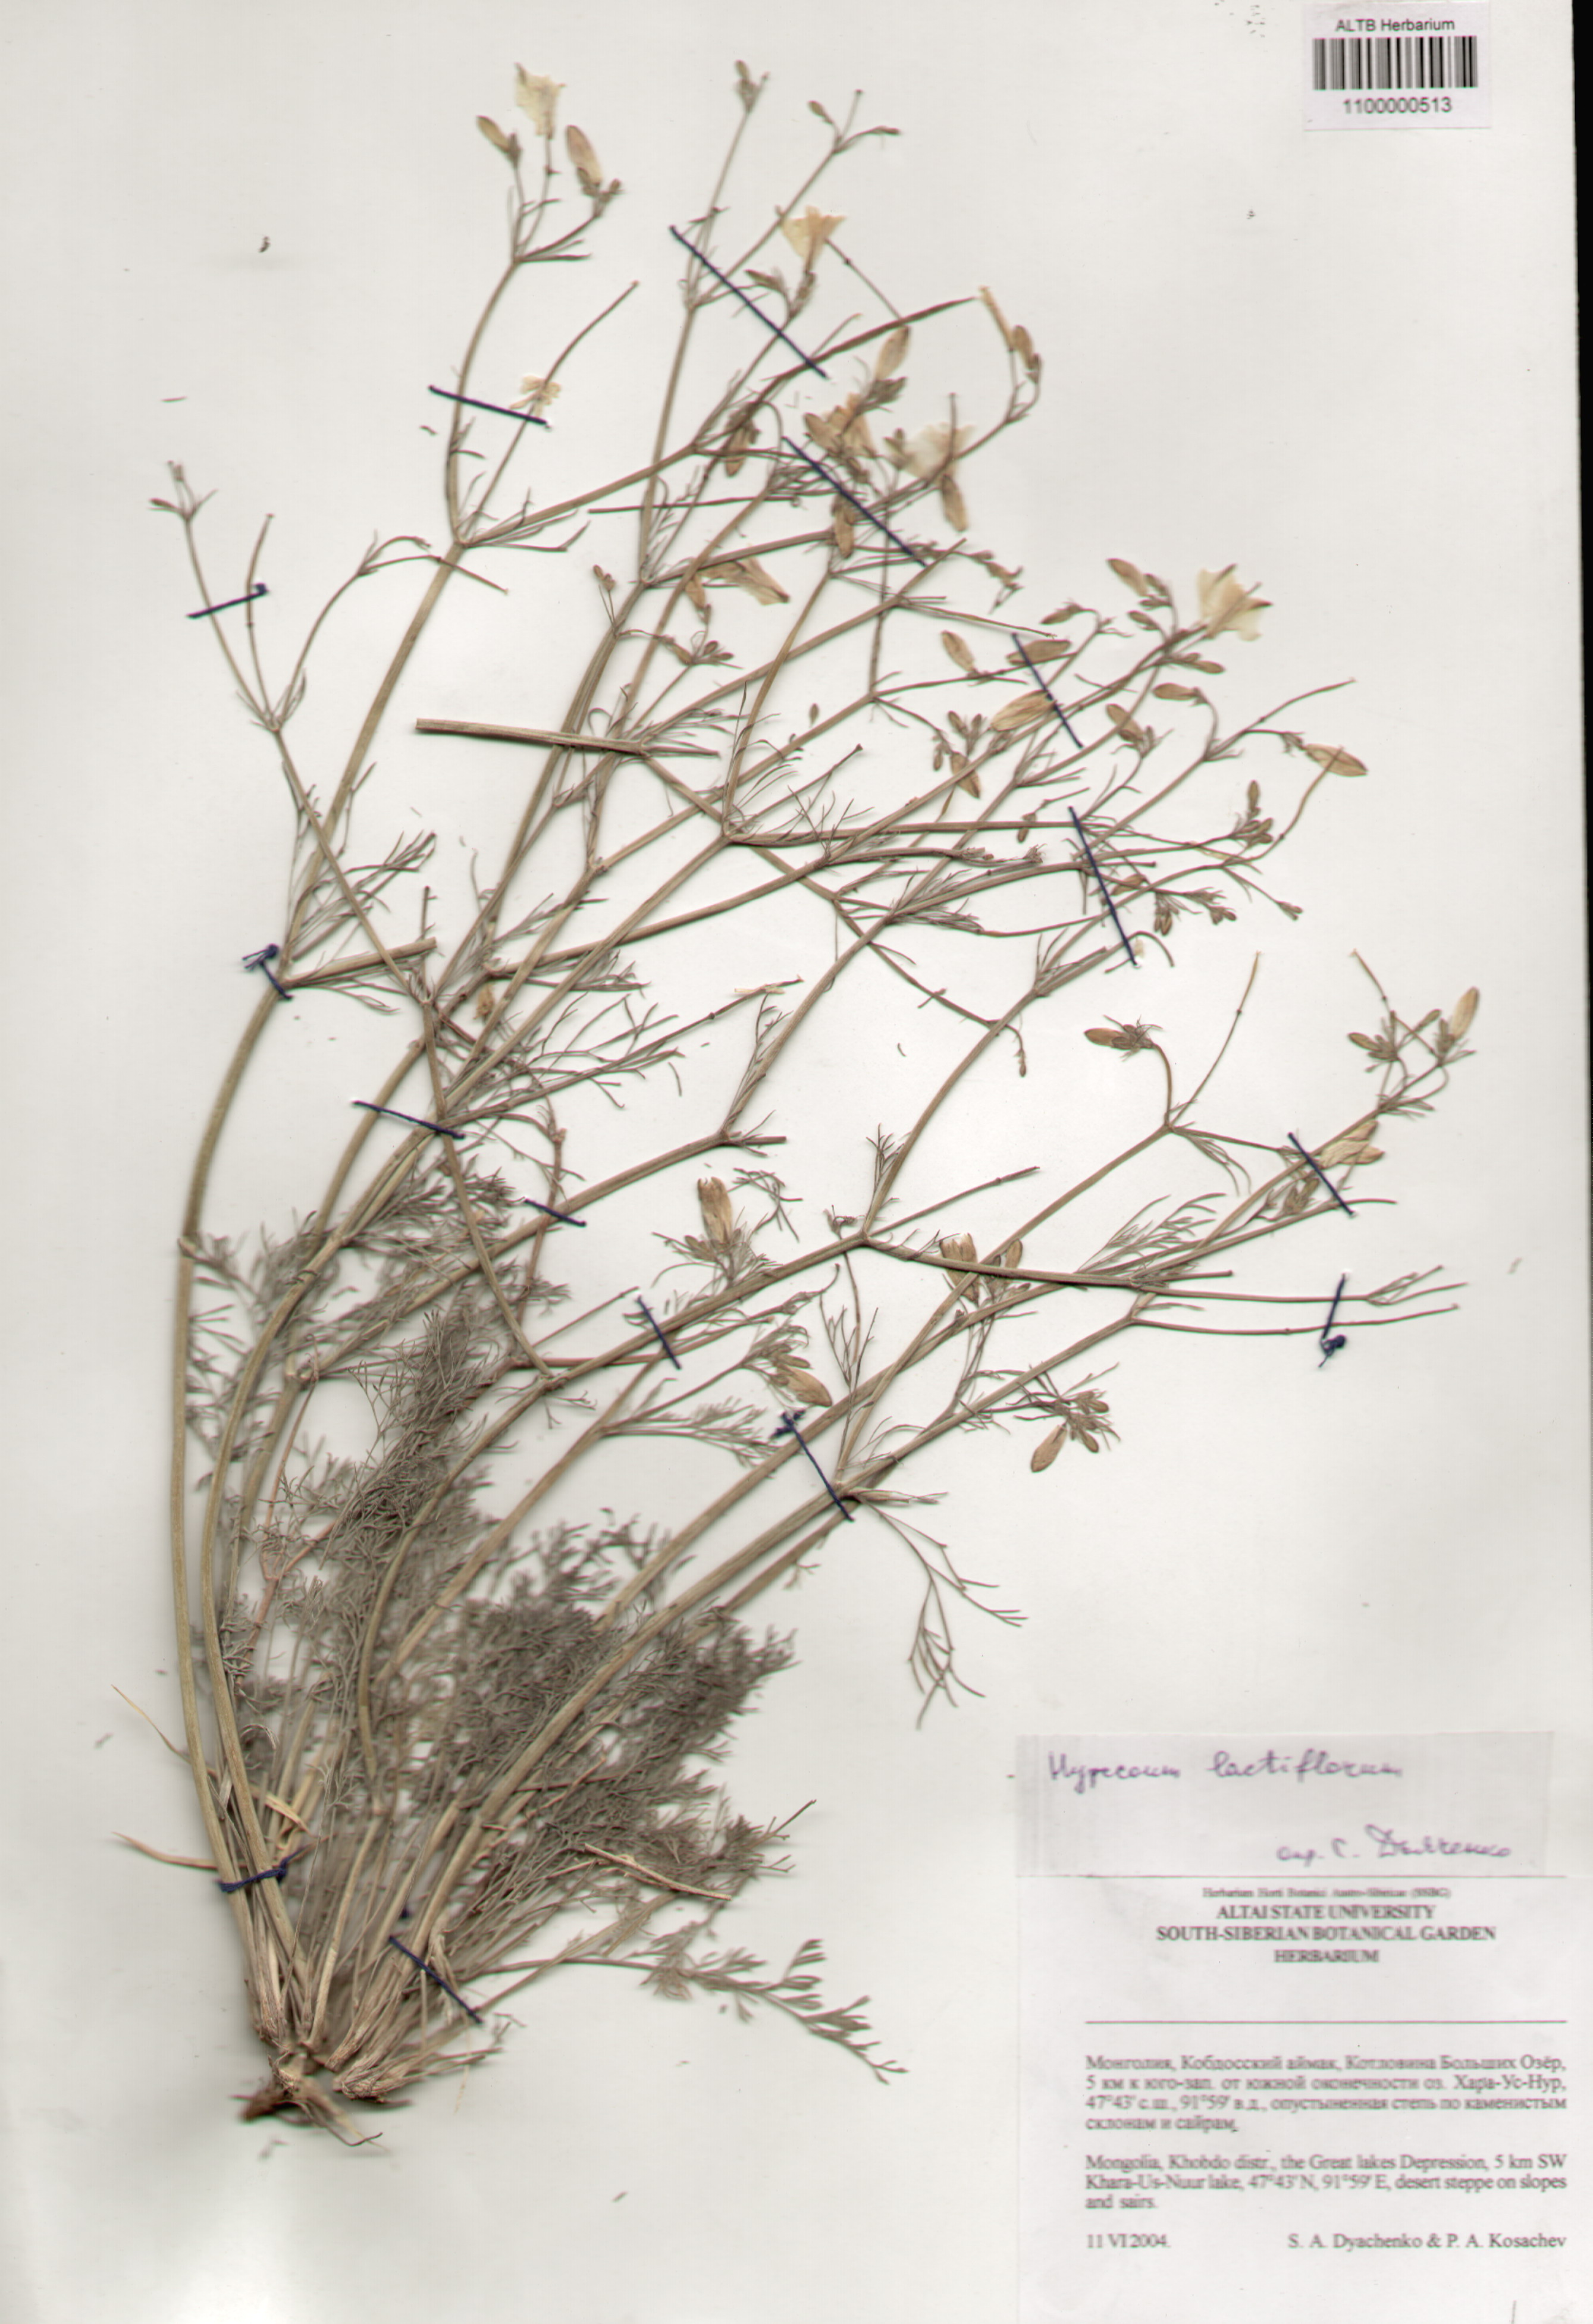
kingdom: Plantae
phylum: Tracheophyta
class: Magnoliopsida
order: Ranunculales
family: Papaveraceae
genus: Hypecoum
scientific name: Hypecoum lactiflorum
